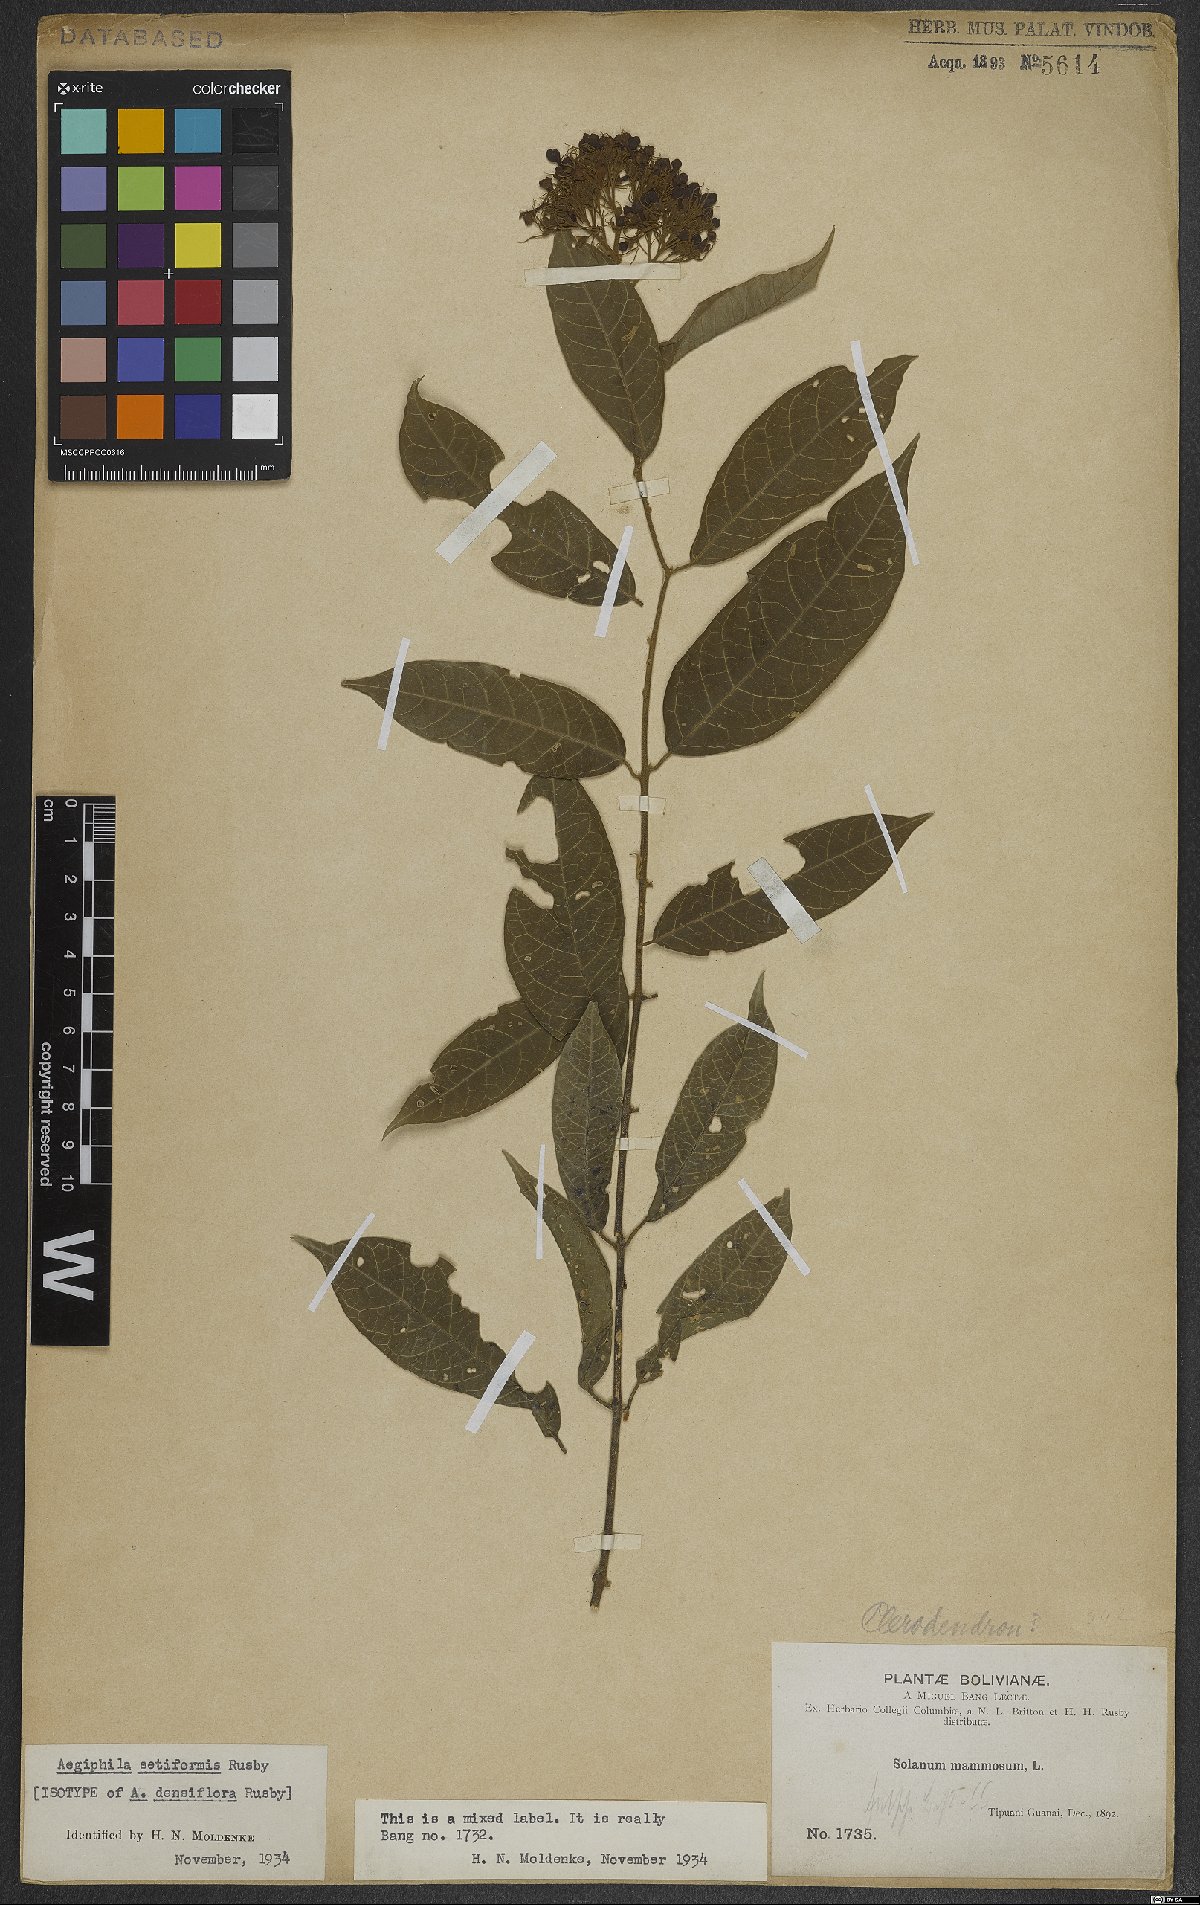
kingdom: Plantae
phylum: Tracheophyta
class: Magnoliopsida
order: Lamiales
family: Lamiaceae
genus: Aegiphila
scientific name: Aegiphila vitelliniflora
